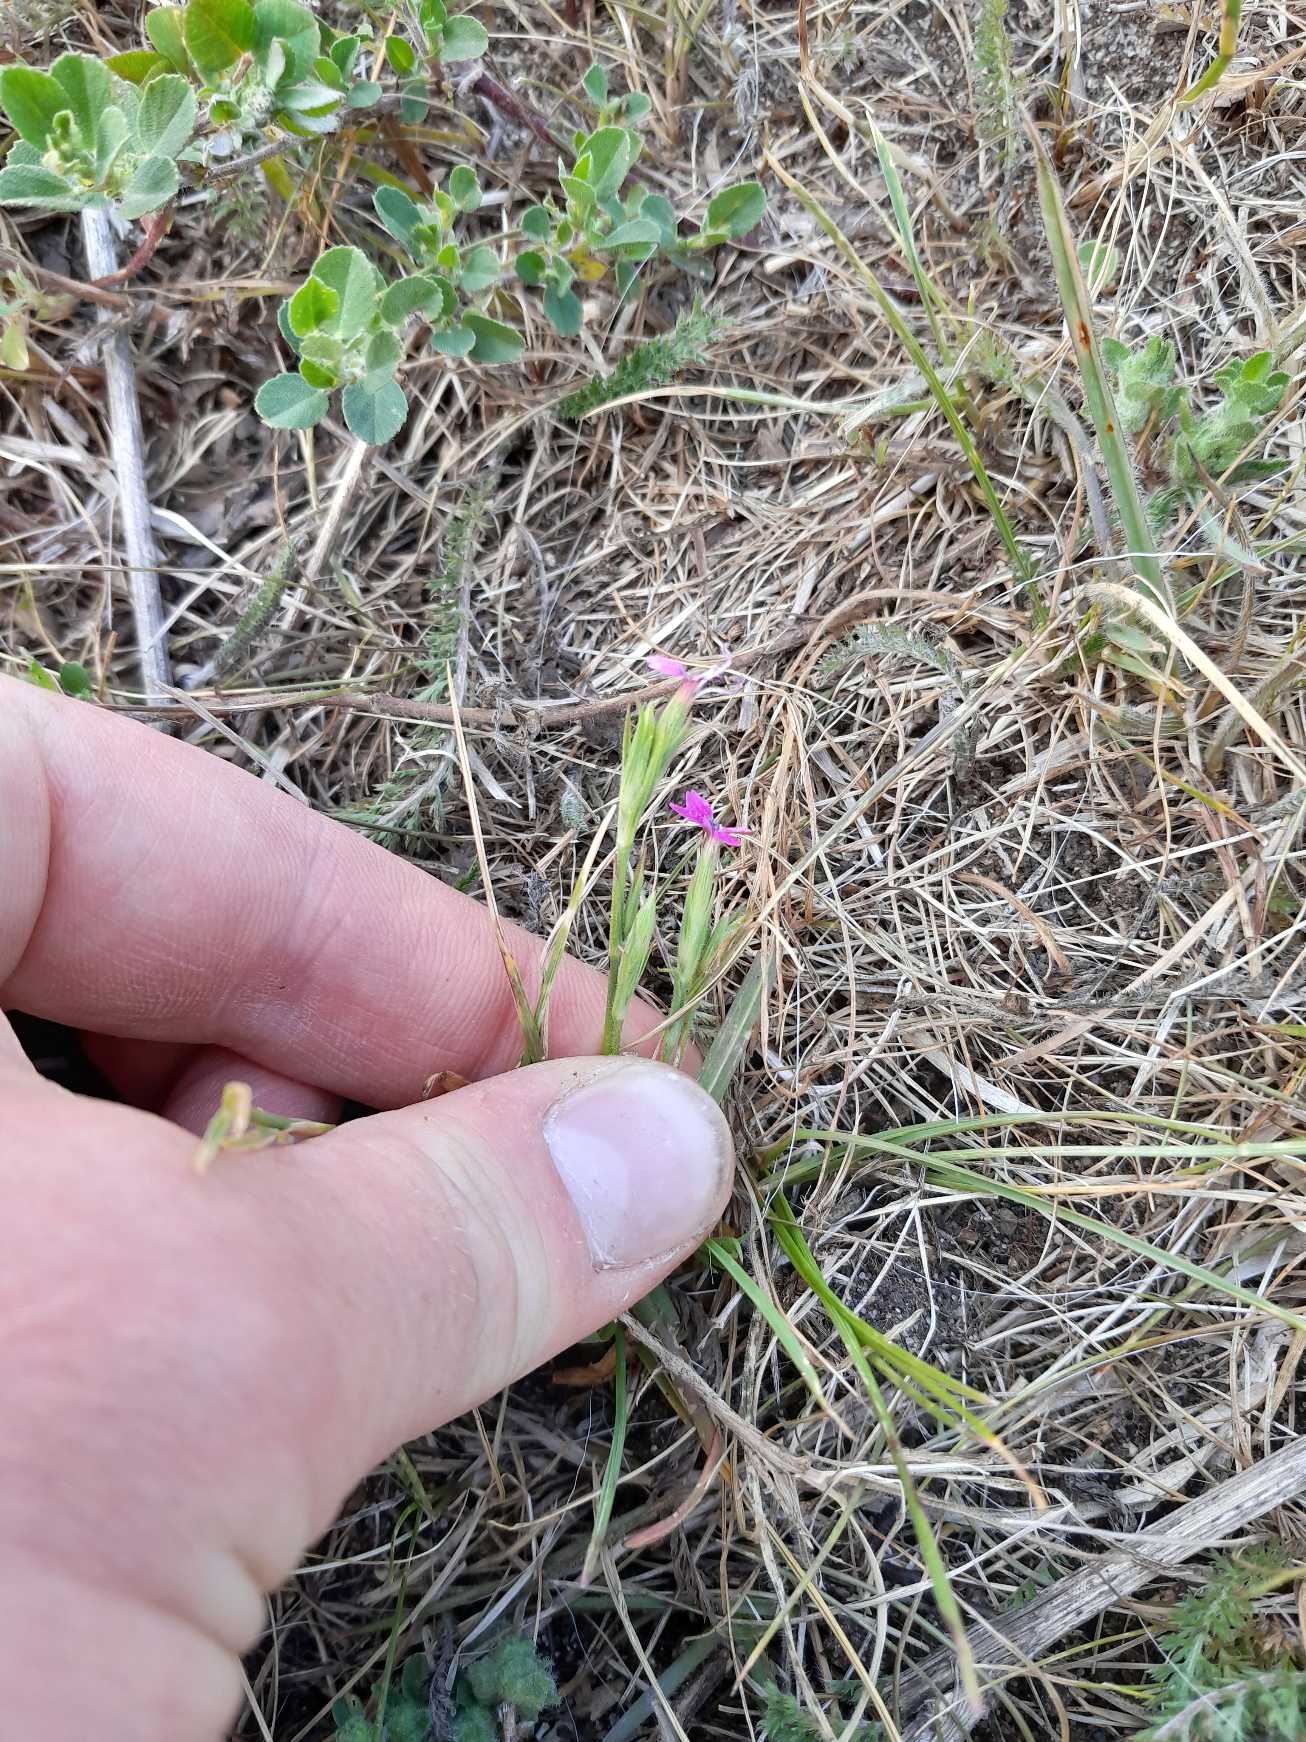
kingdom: Plantae
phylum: Tracheophyta
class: Magnoliopsida
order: Caryophyllales
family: Caryophyllaceae
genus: Dianthus
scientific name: Dianthus armeria
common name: Kost-nellike
